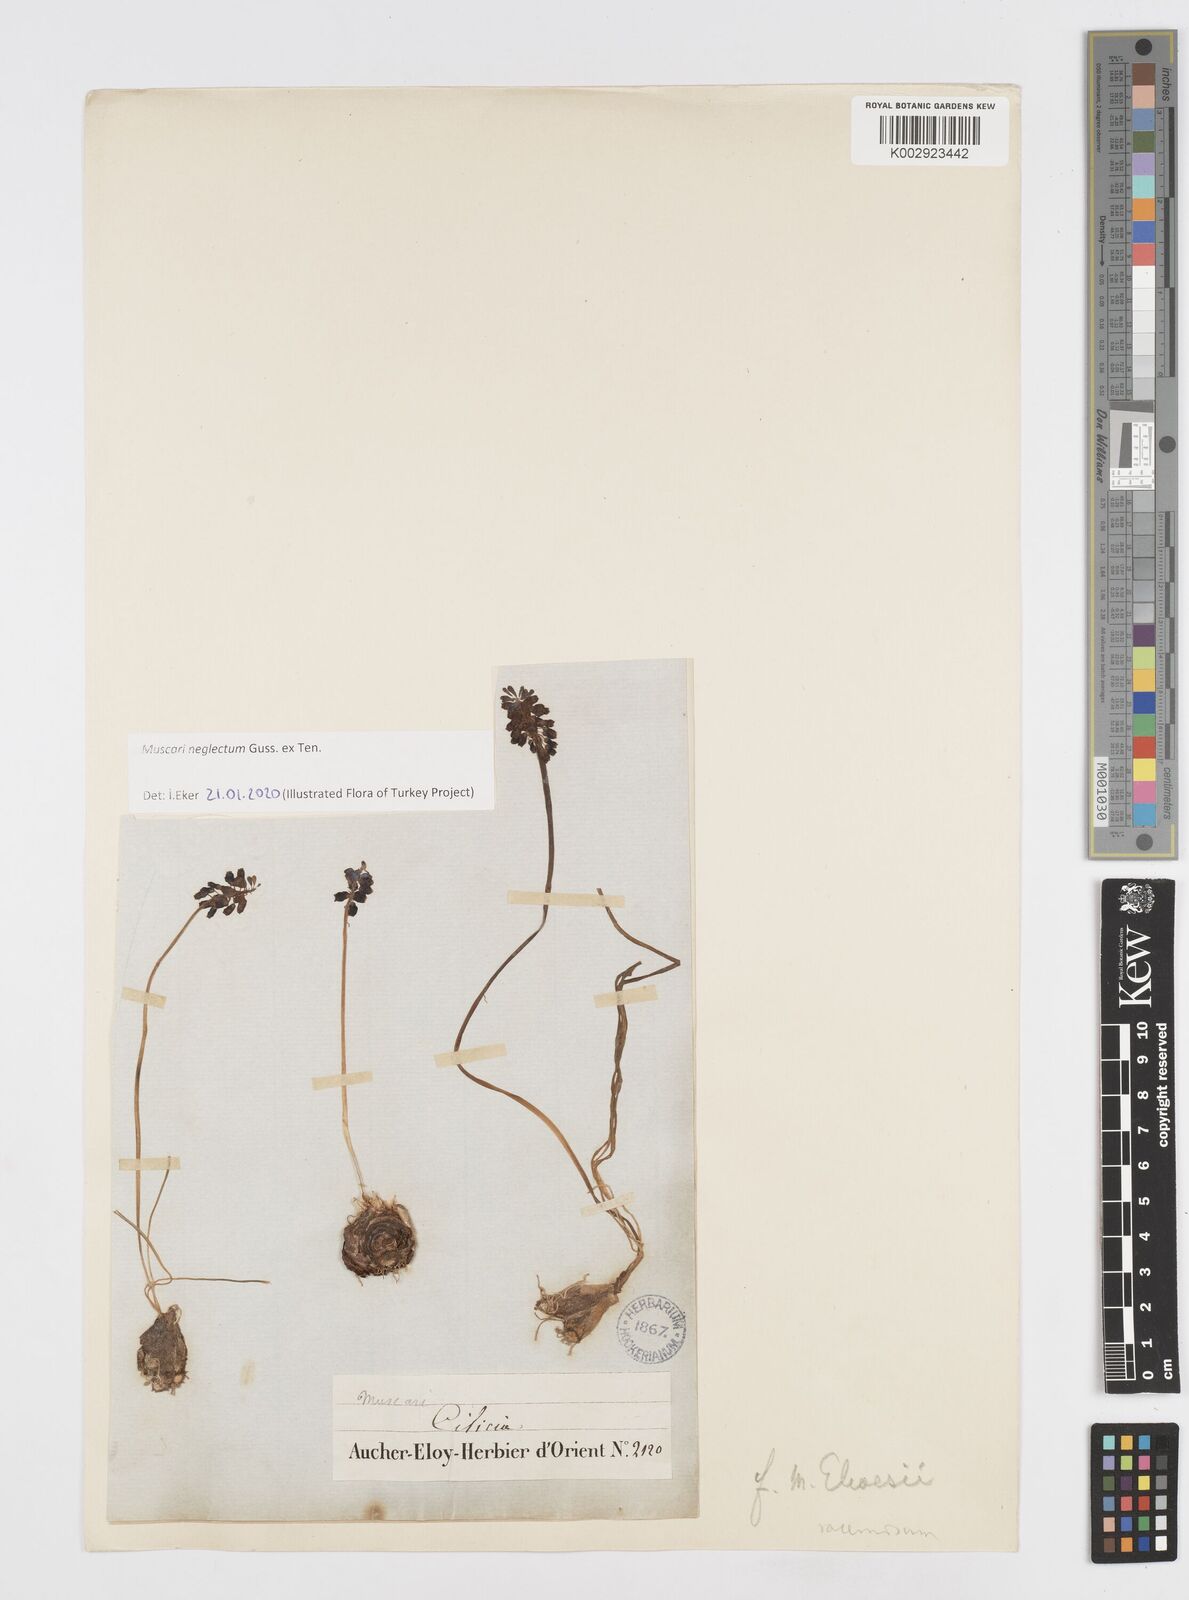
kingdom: Plantae
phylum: Tracheophyta
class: Liliopsida
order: Asparagales
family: Asparagaceae
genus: Muscari
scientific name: Muscari neglectum
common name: Grape-hyacinth
